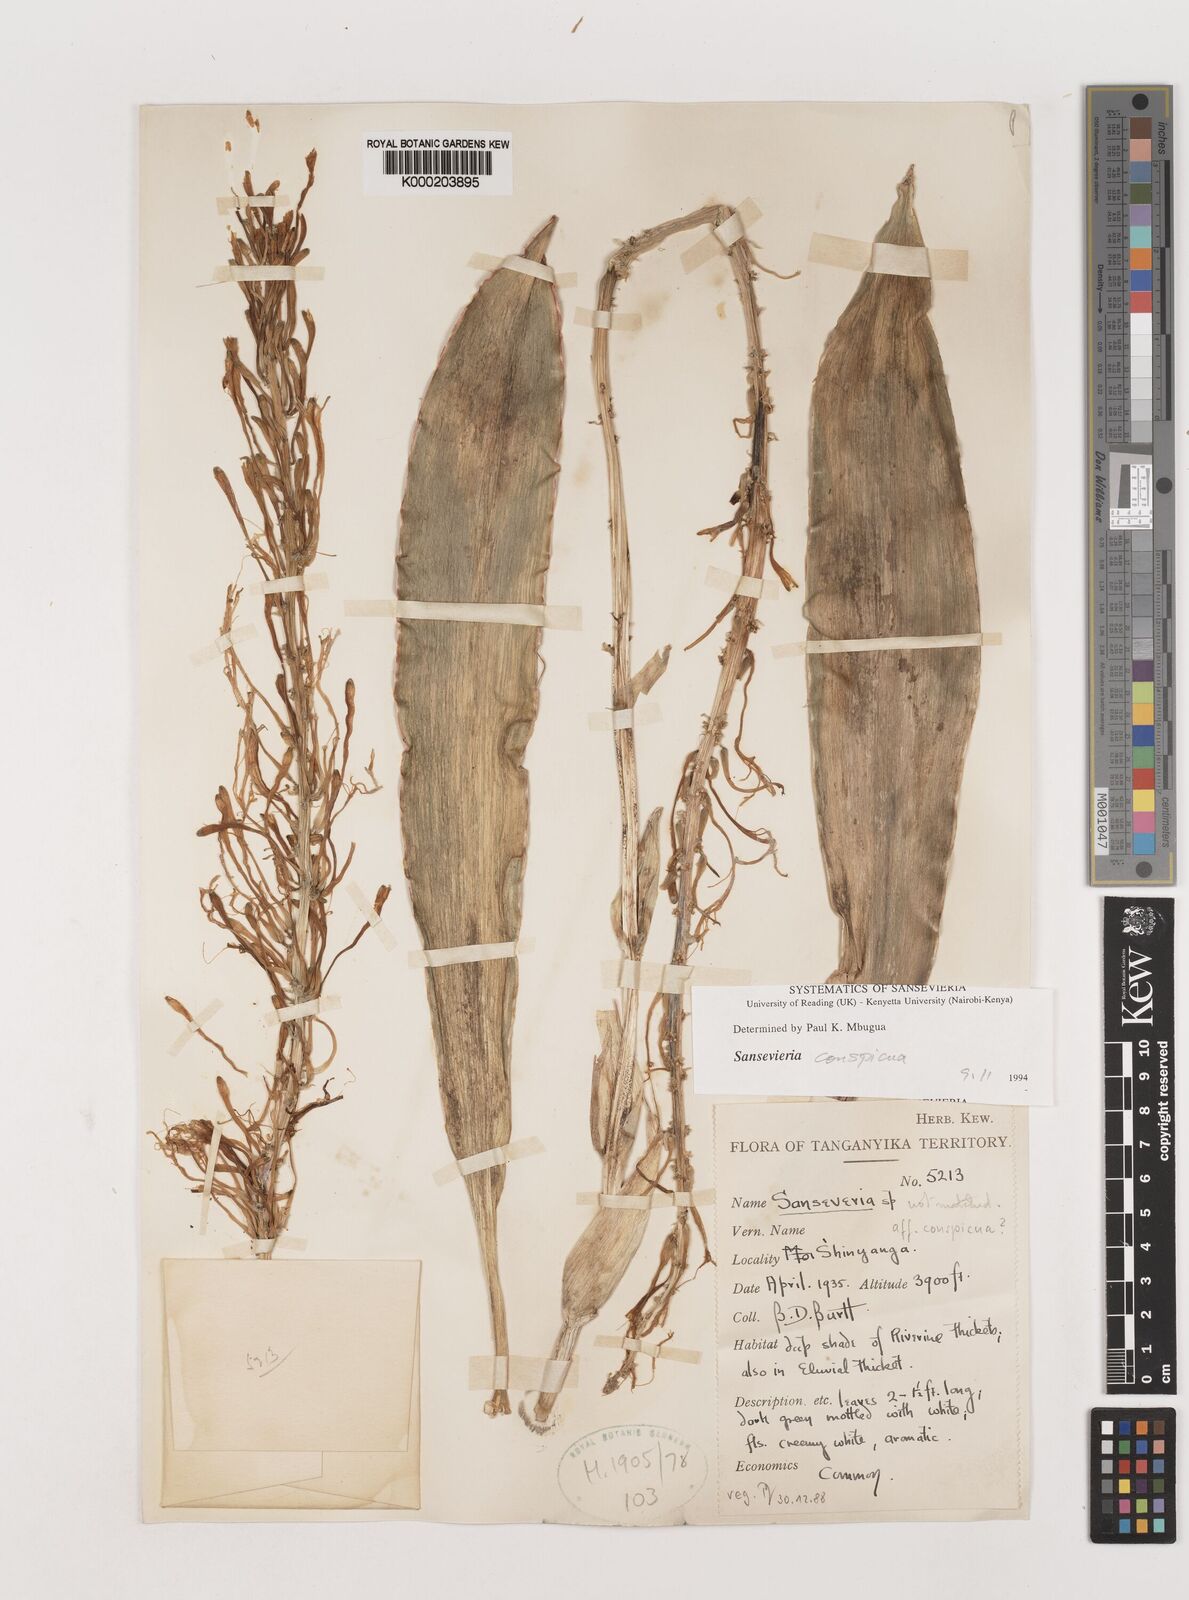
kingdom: Plantae
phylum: Tracheophyta
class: Liliopsida
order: Asparagales
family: Asparagaceae
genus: Dracaena
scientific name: Dracaena conspicua
